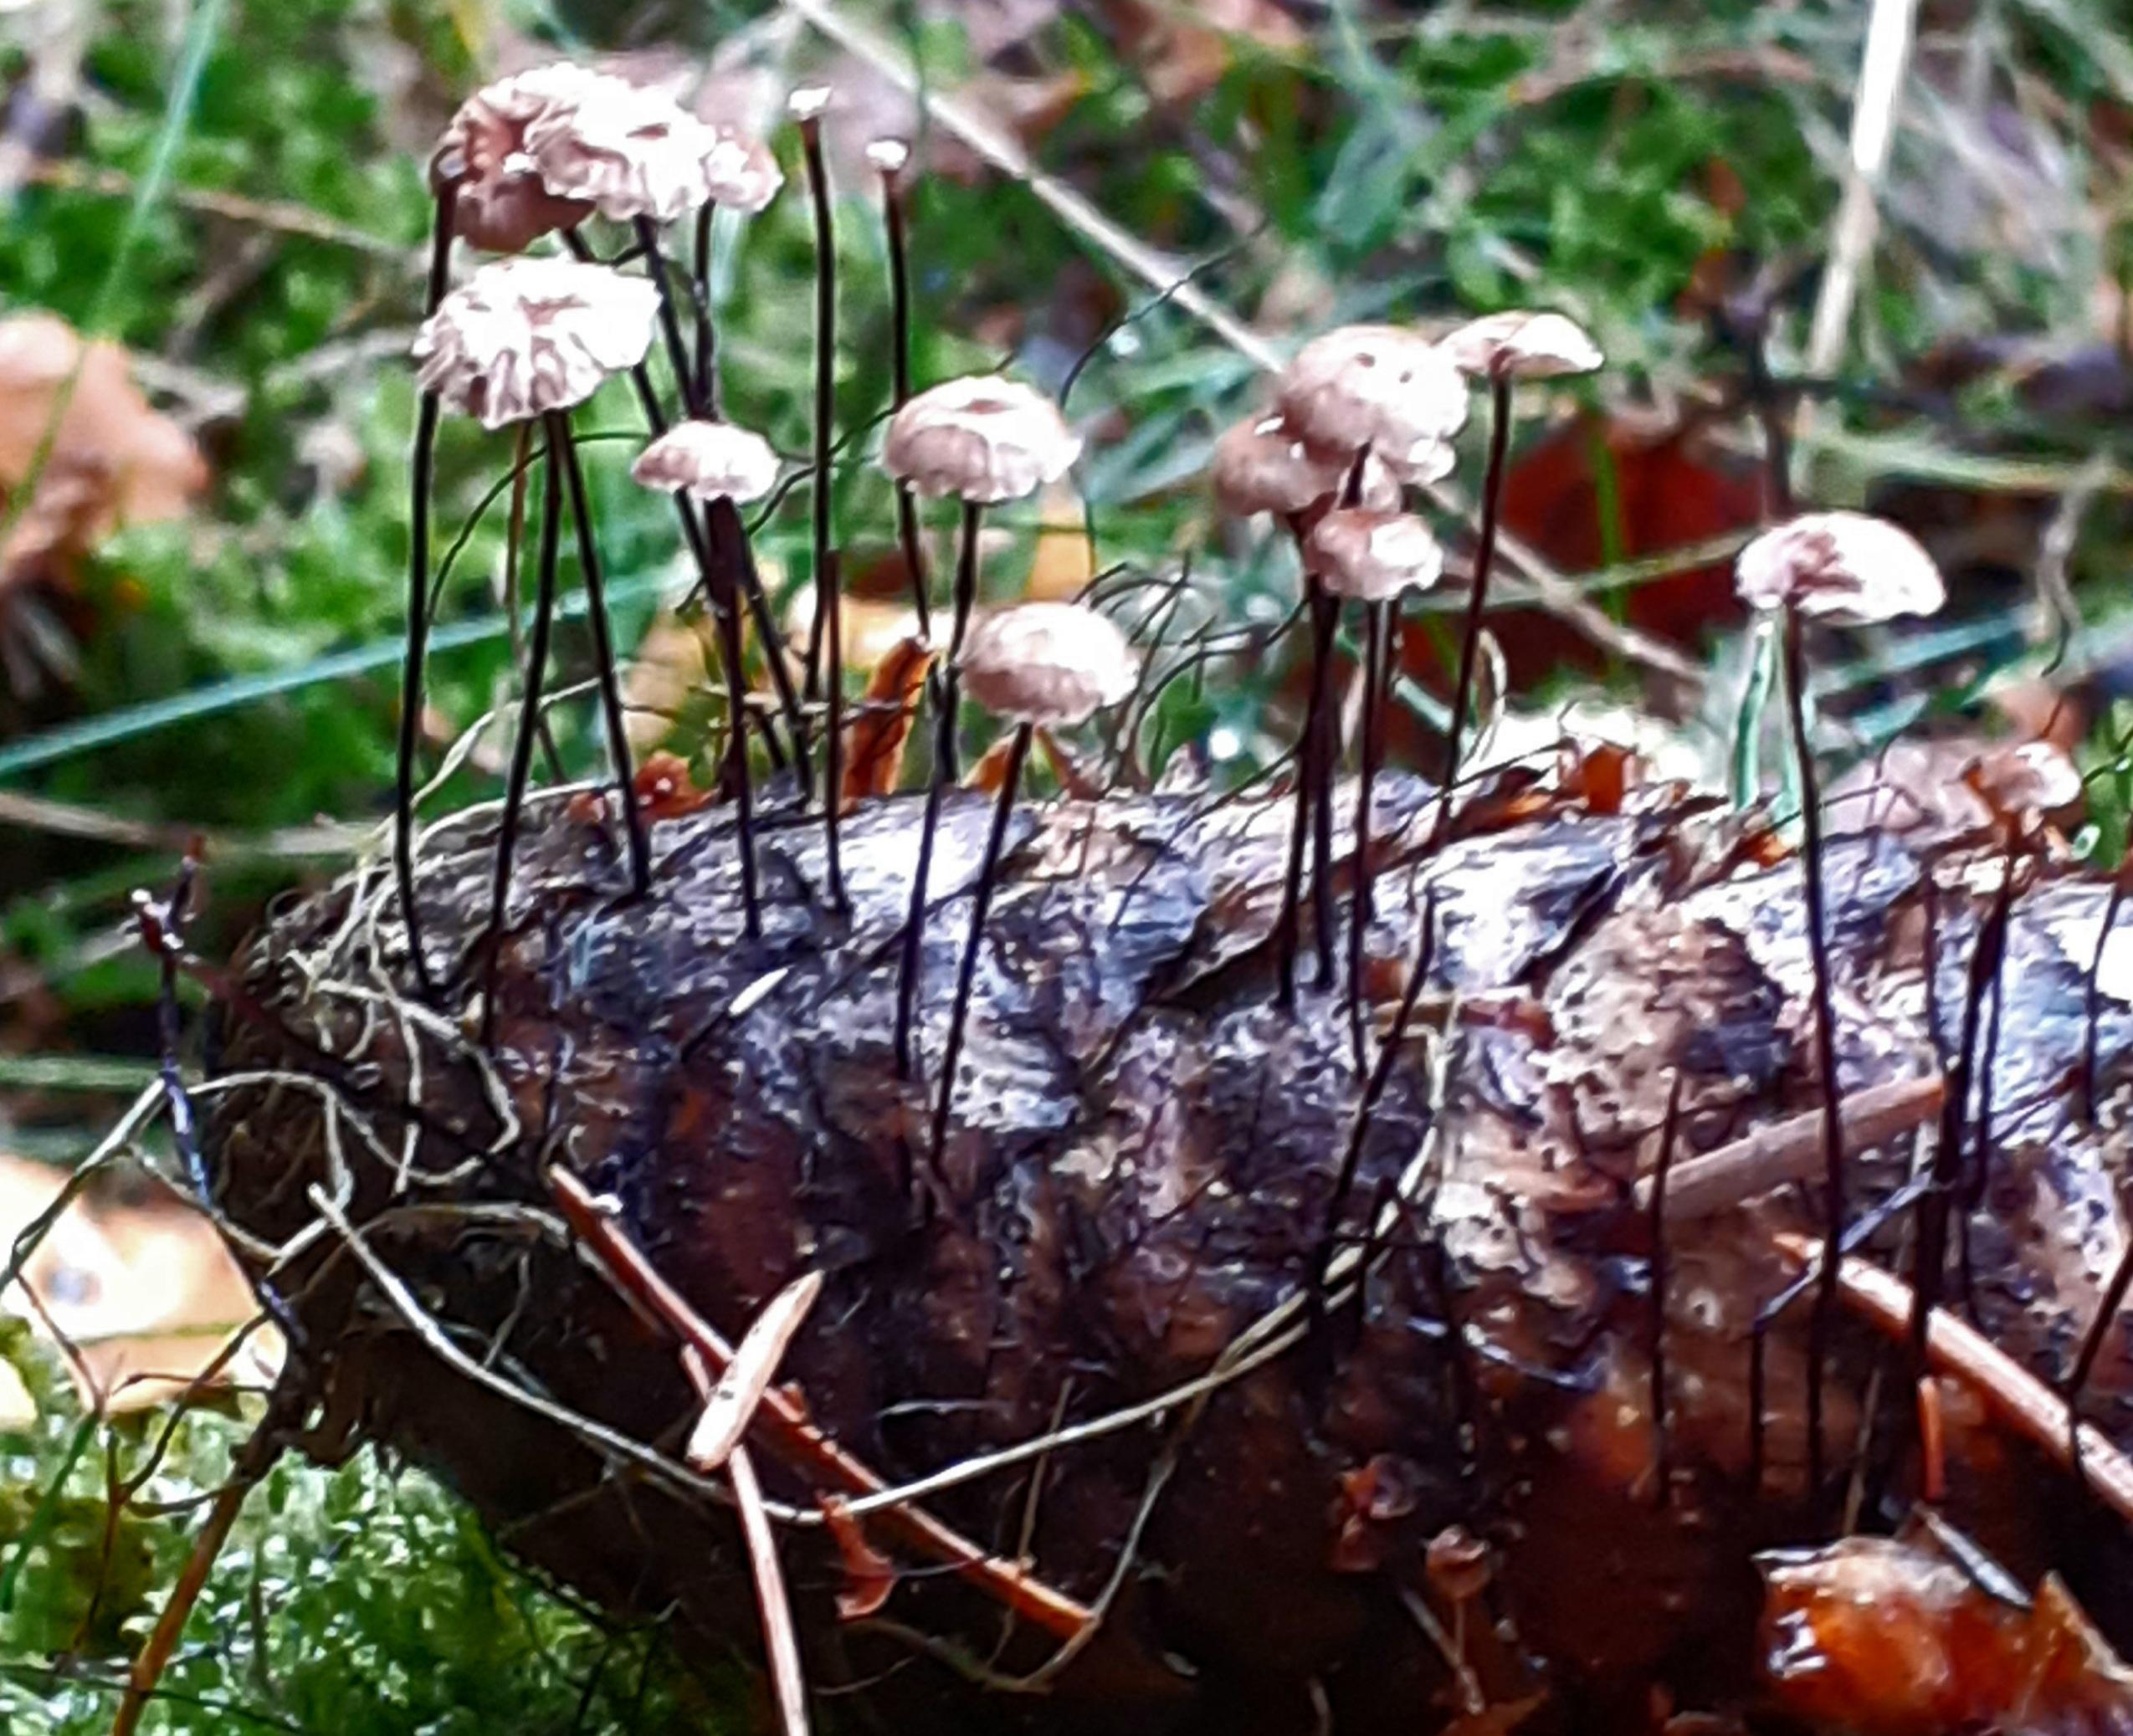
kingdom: Fungi
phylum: Basidiomycota
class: Agaricomycetes
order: Agaricales
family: Omphalotaceae
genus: Gymnopus
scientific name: Gymnopus androsaceus
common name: trådstokket fladhat
